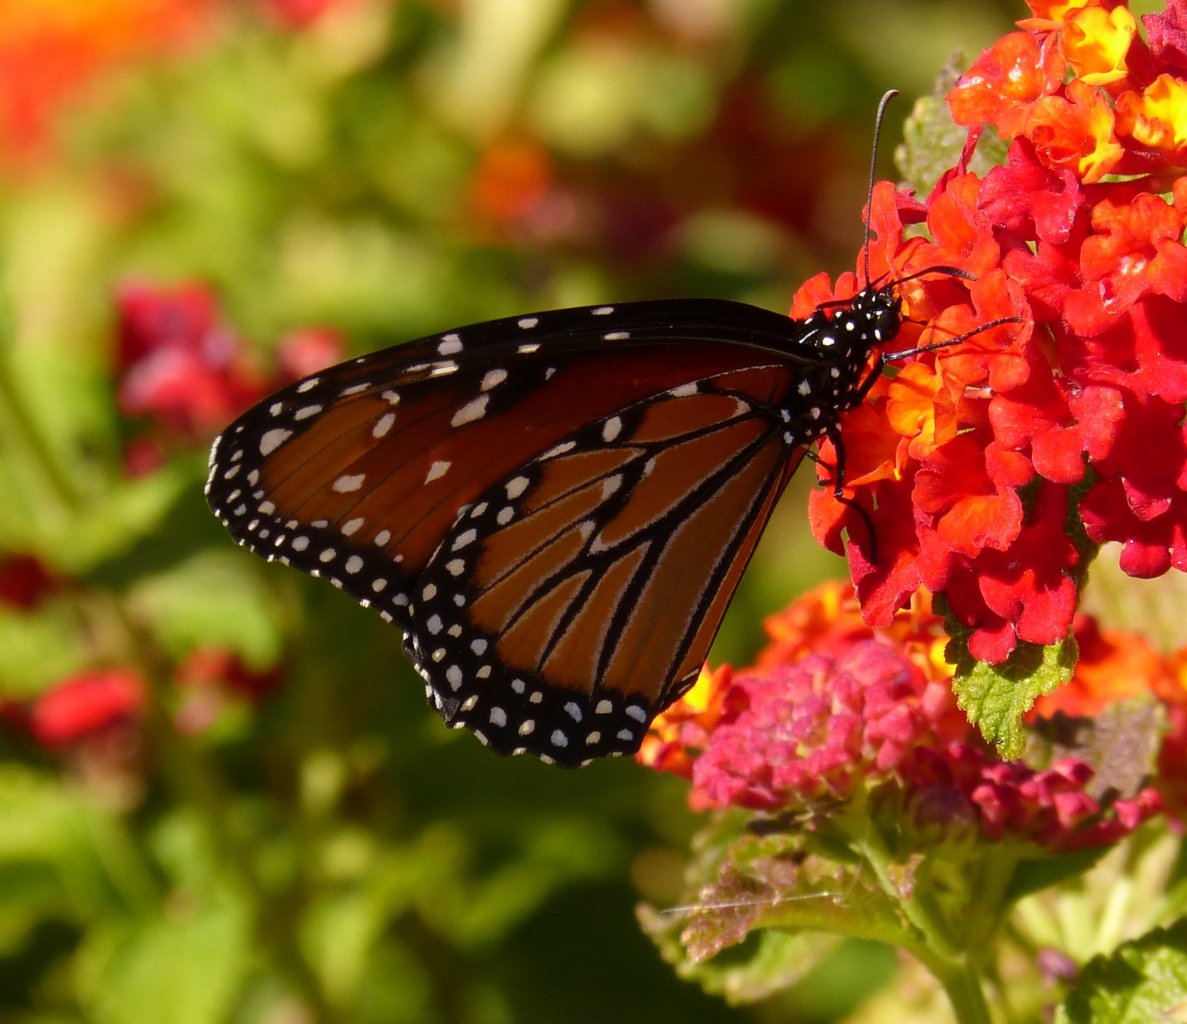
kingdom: Animalia
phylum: Arthropoda
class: Insecta
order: Lepidoptera
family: Nymphalidae
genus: Danaus
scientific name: Danaus gilippus
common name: Queen
